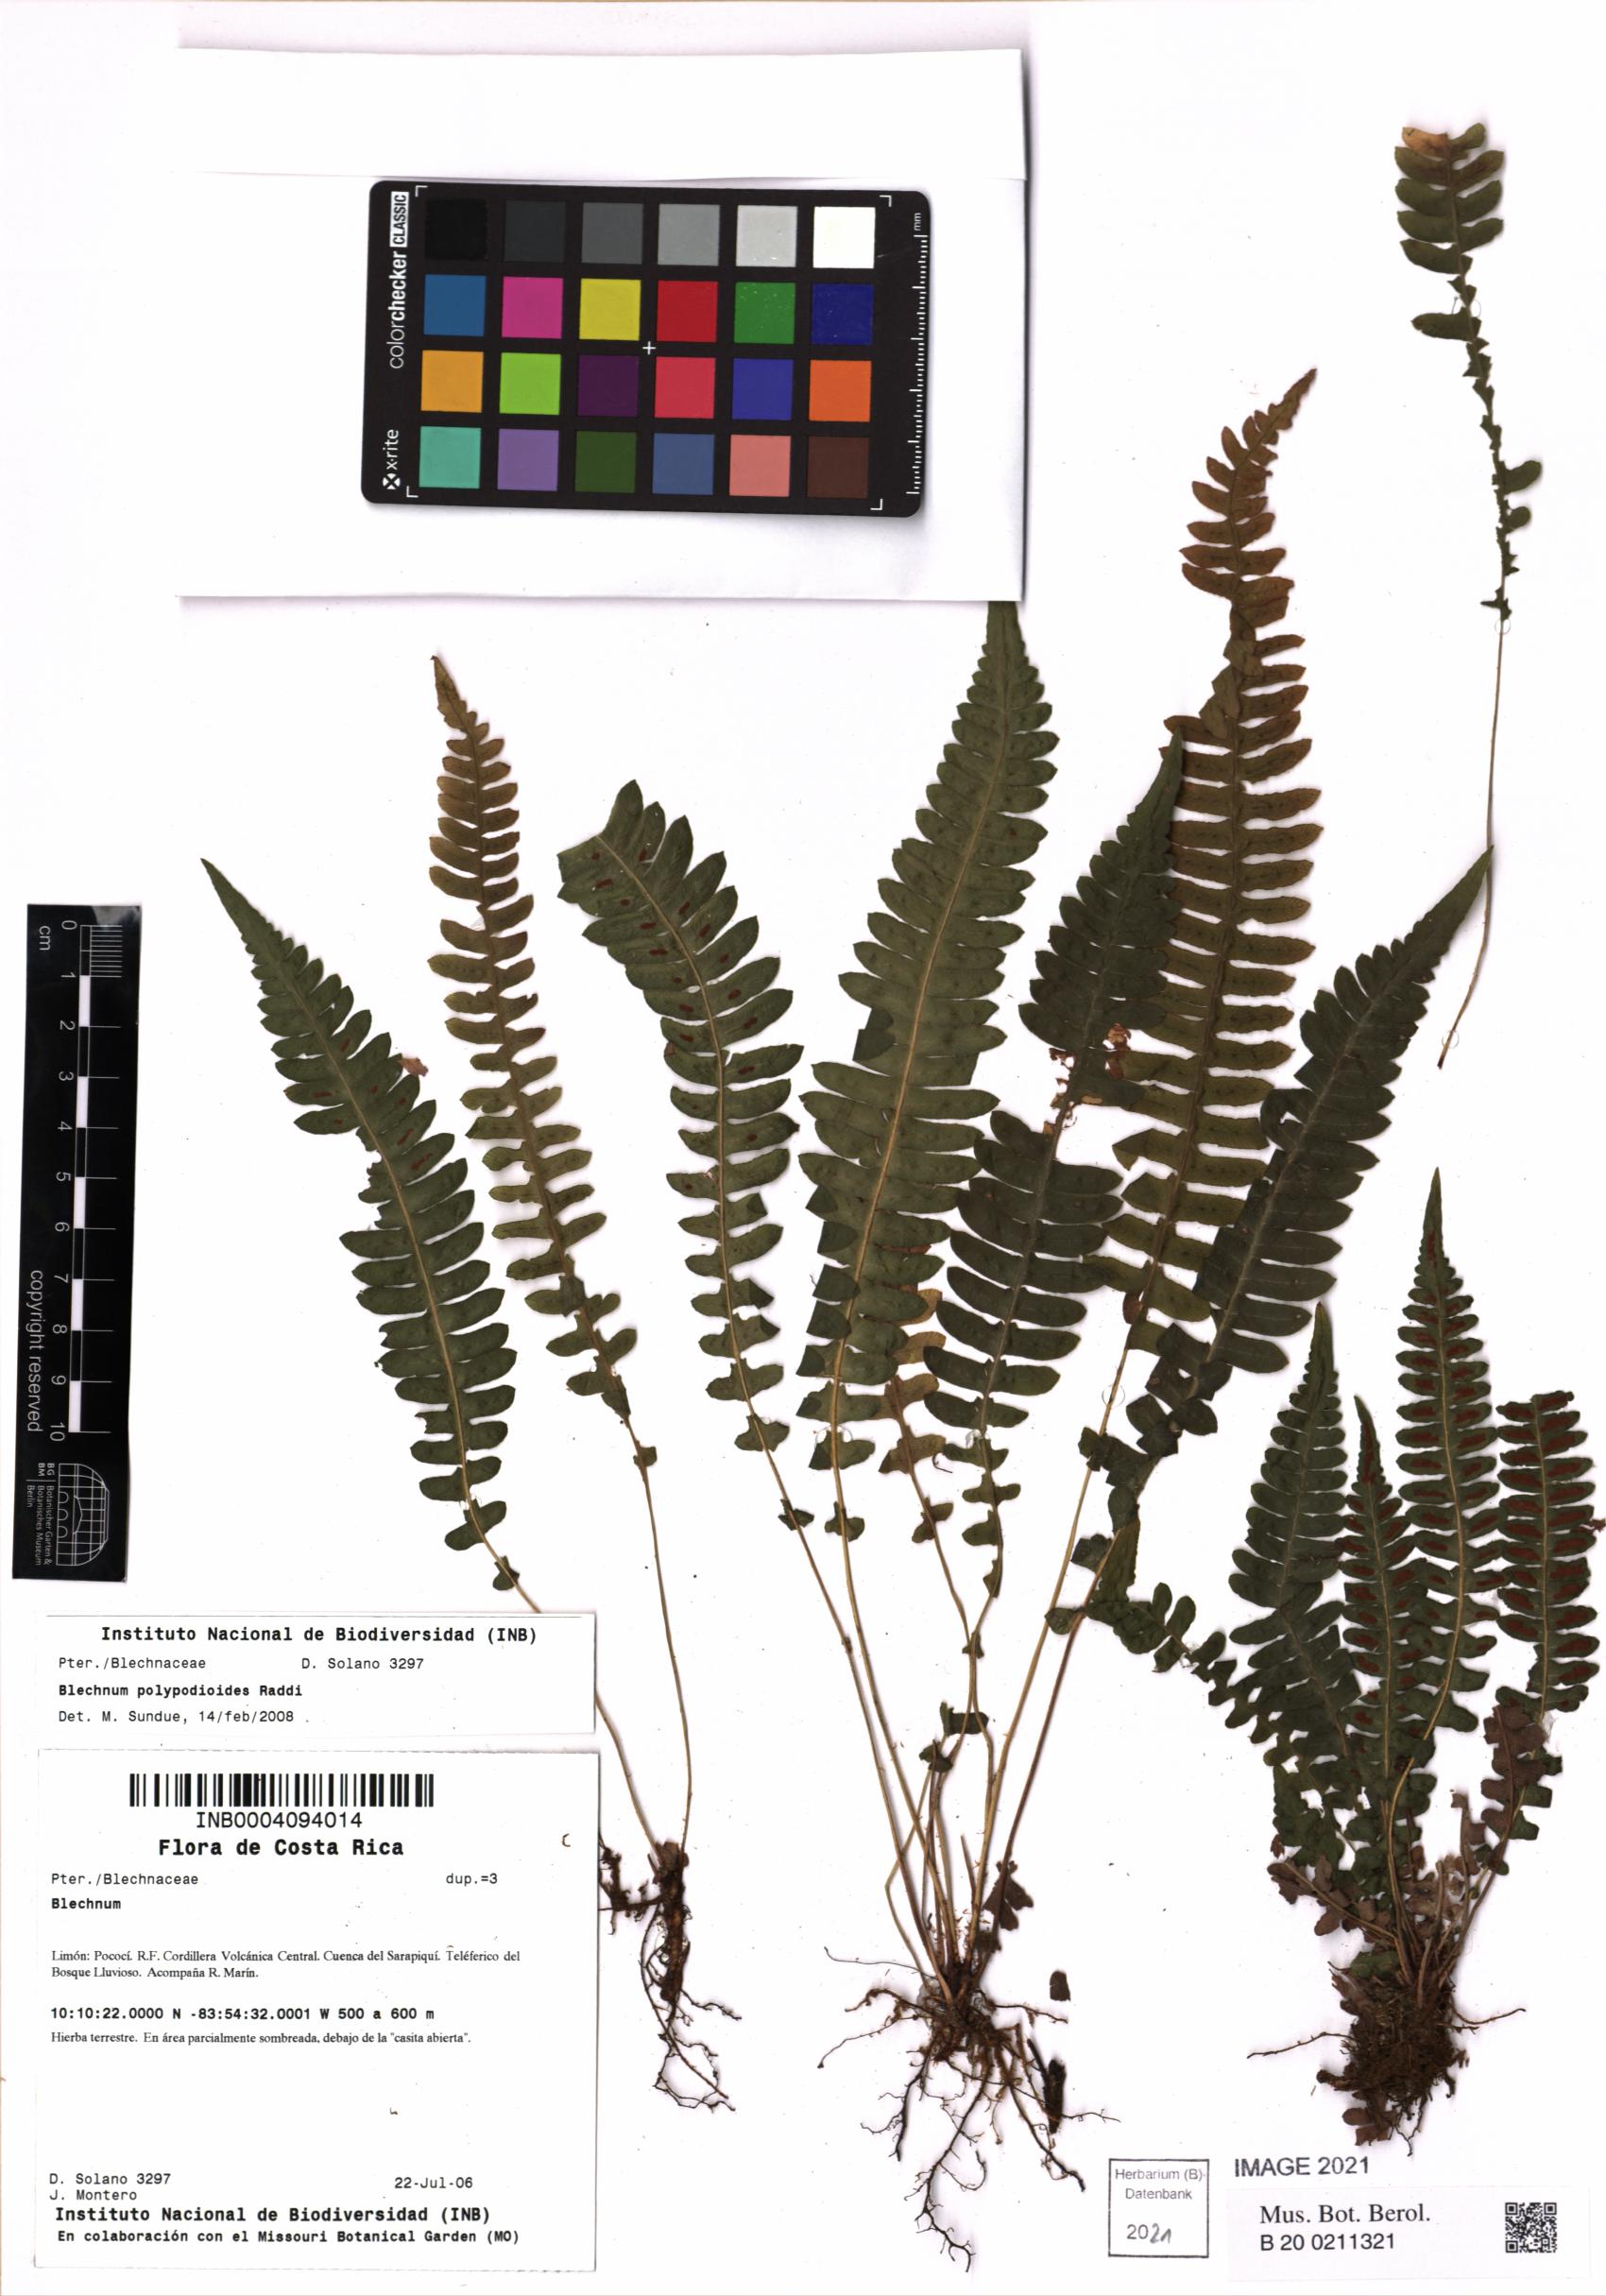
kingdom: Plantae
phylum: Tracheophyta
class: Polypodiopsida
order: Polypodiales
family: Blechnaceae
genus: Blechnum
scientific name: Blechnum polypodioides
